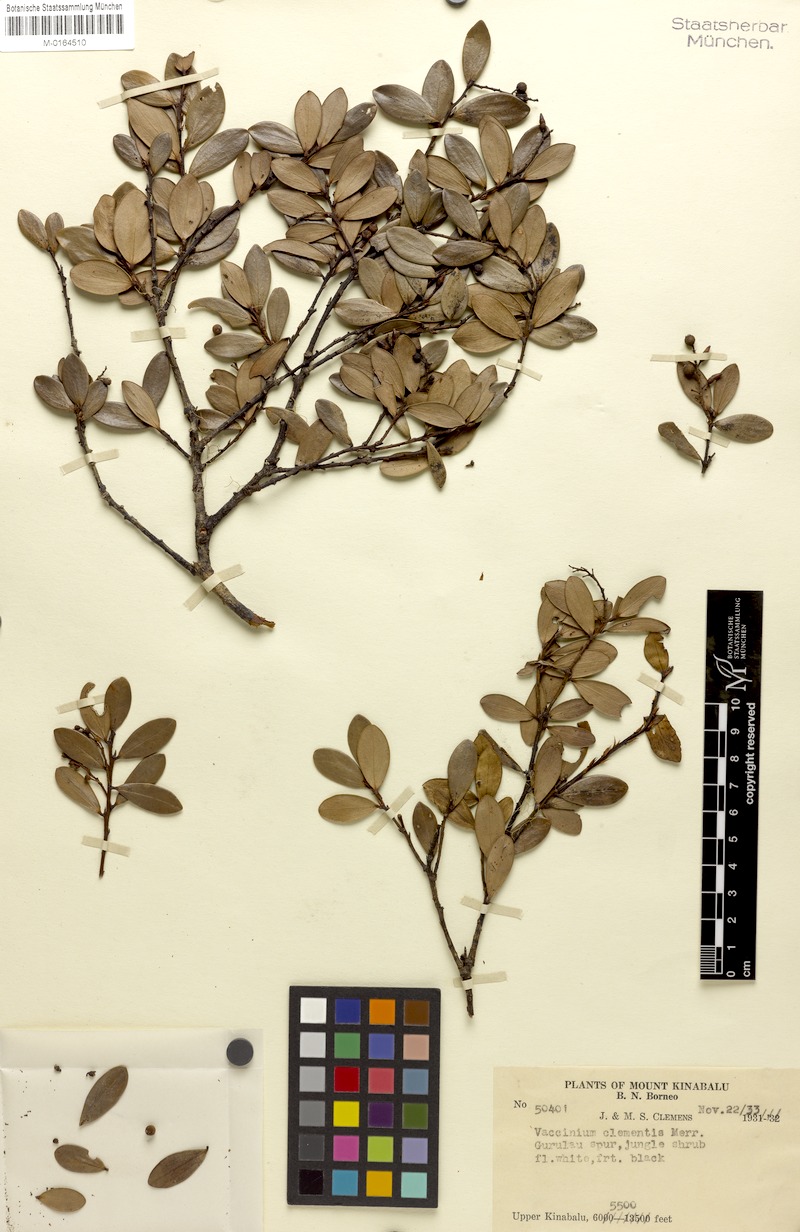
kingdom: Plantae
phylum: Tracheophyta
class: Magnoliopsida
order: Ericales
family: Ericaceae
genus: Vaccinium
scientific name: Vaccinium clementis
